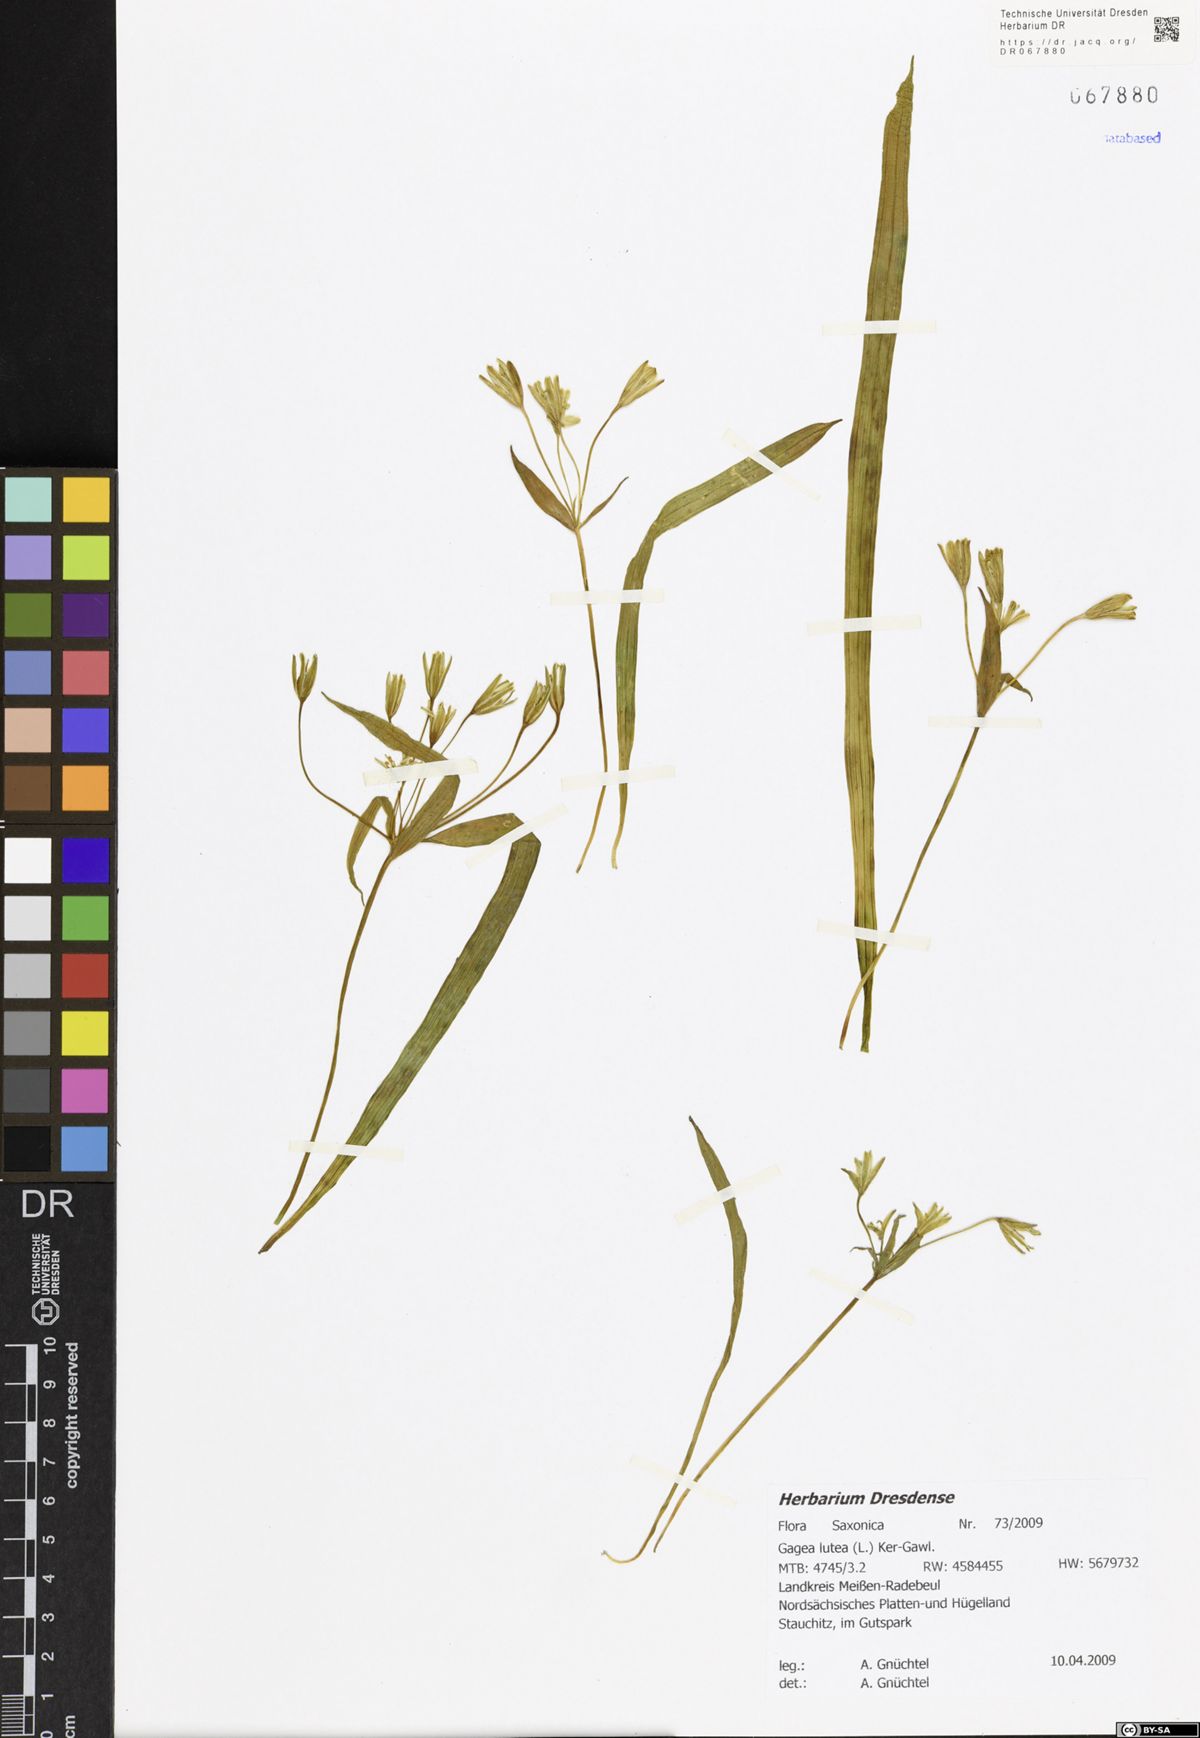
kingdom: Plantae
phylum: Tracheophyta
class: Liliopsida
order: Liliales
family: Liliaceae
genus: Gagea
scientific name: Gagea lutea
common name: Yellow star-of-bethlehem
